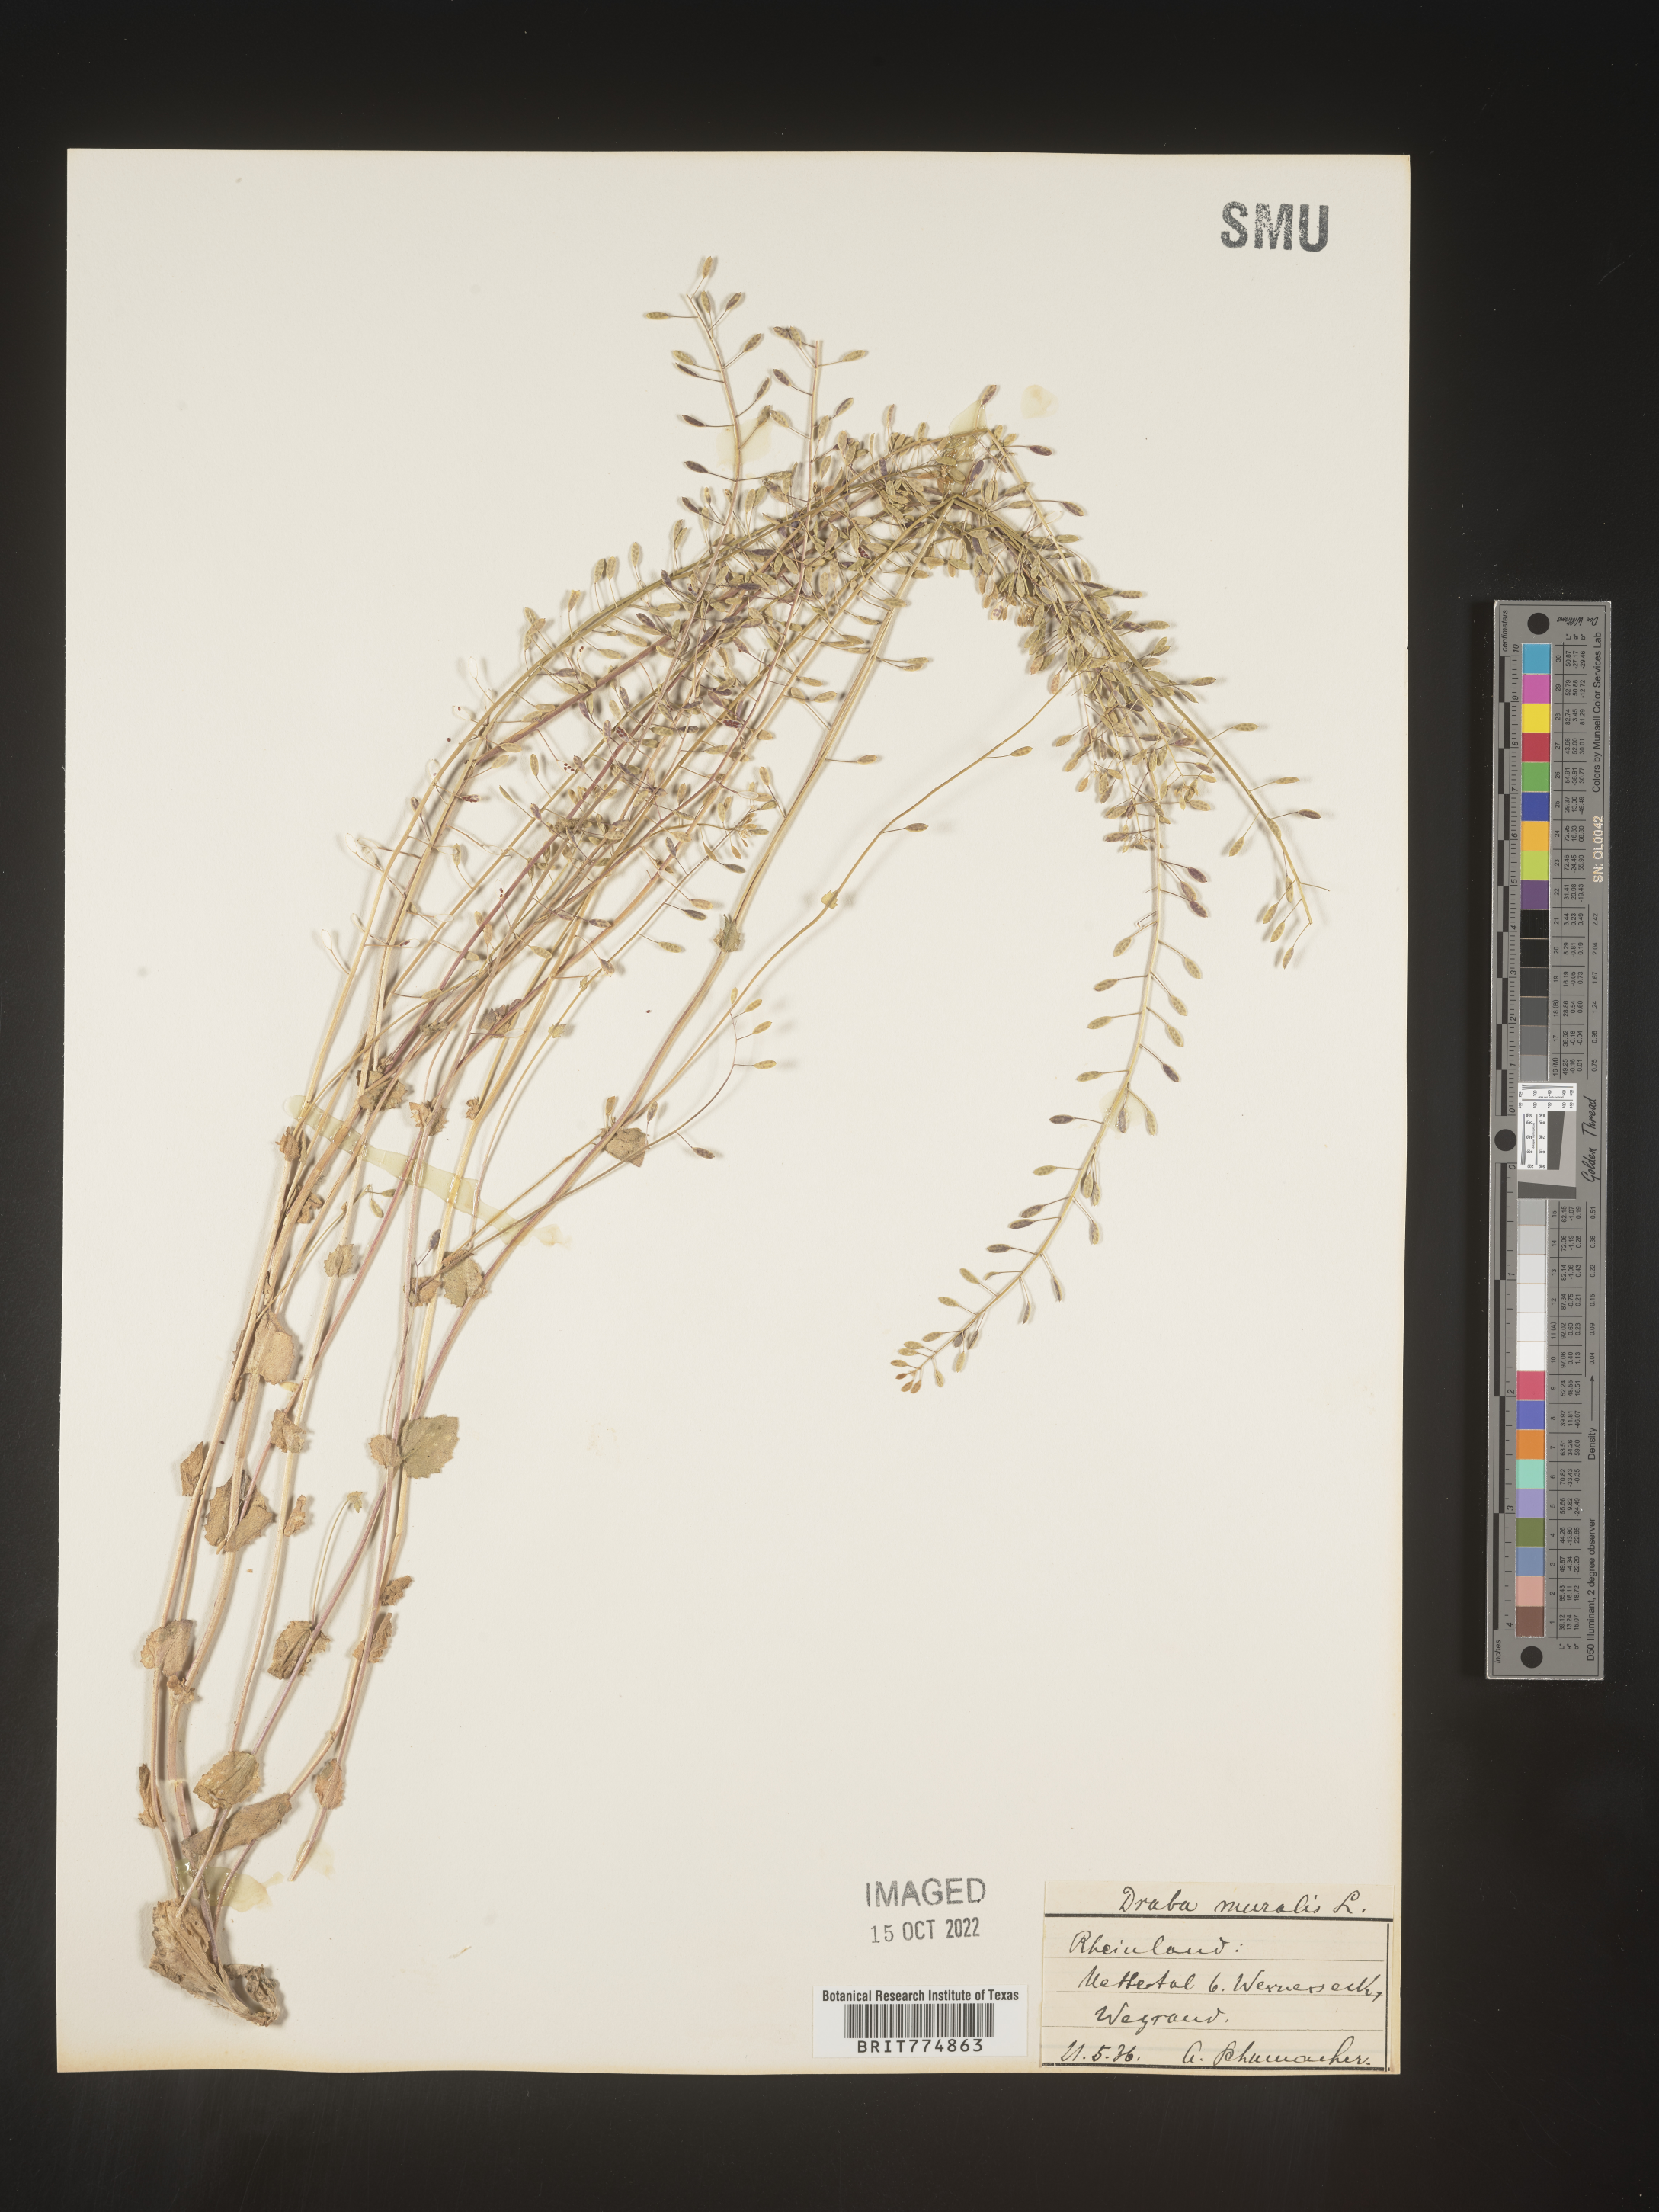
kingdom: Plantae
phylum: Tracheophyta
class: Magnoliopsida
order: Brassicales
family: Brassicaceae
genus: Draba
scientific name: Draba
